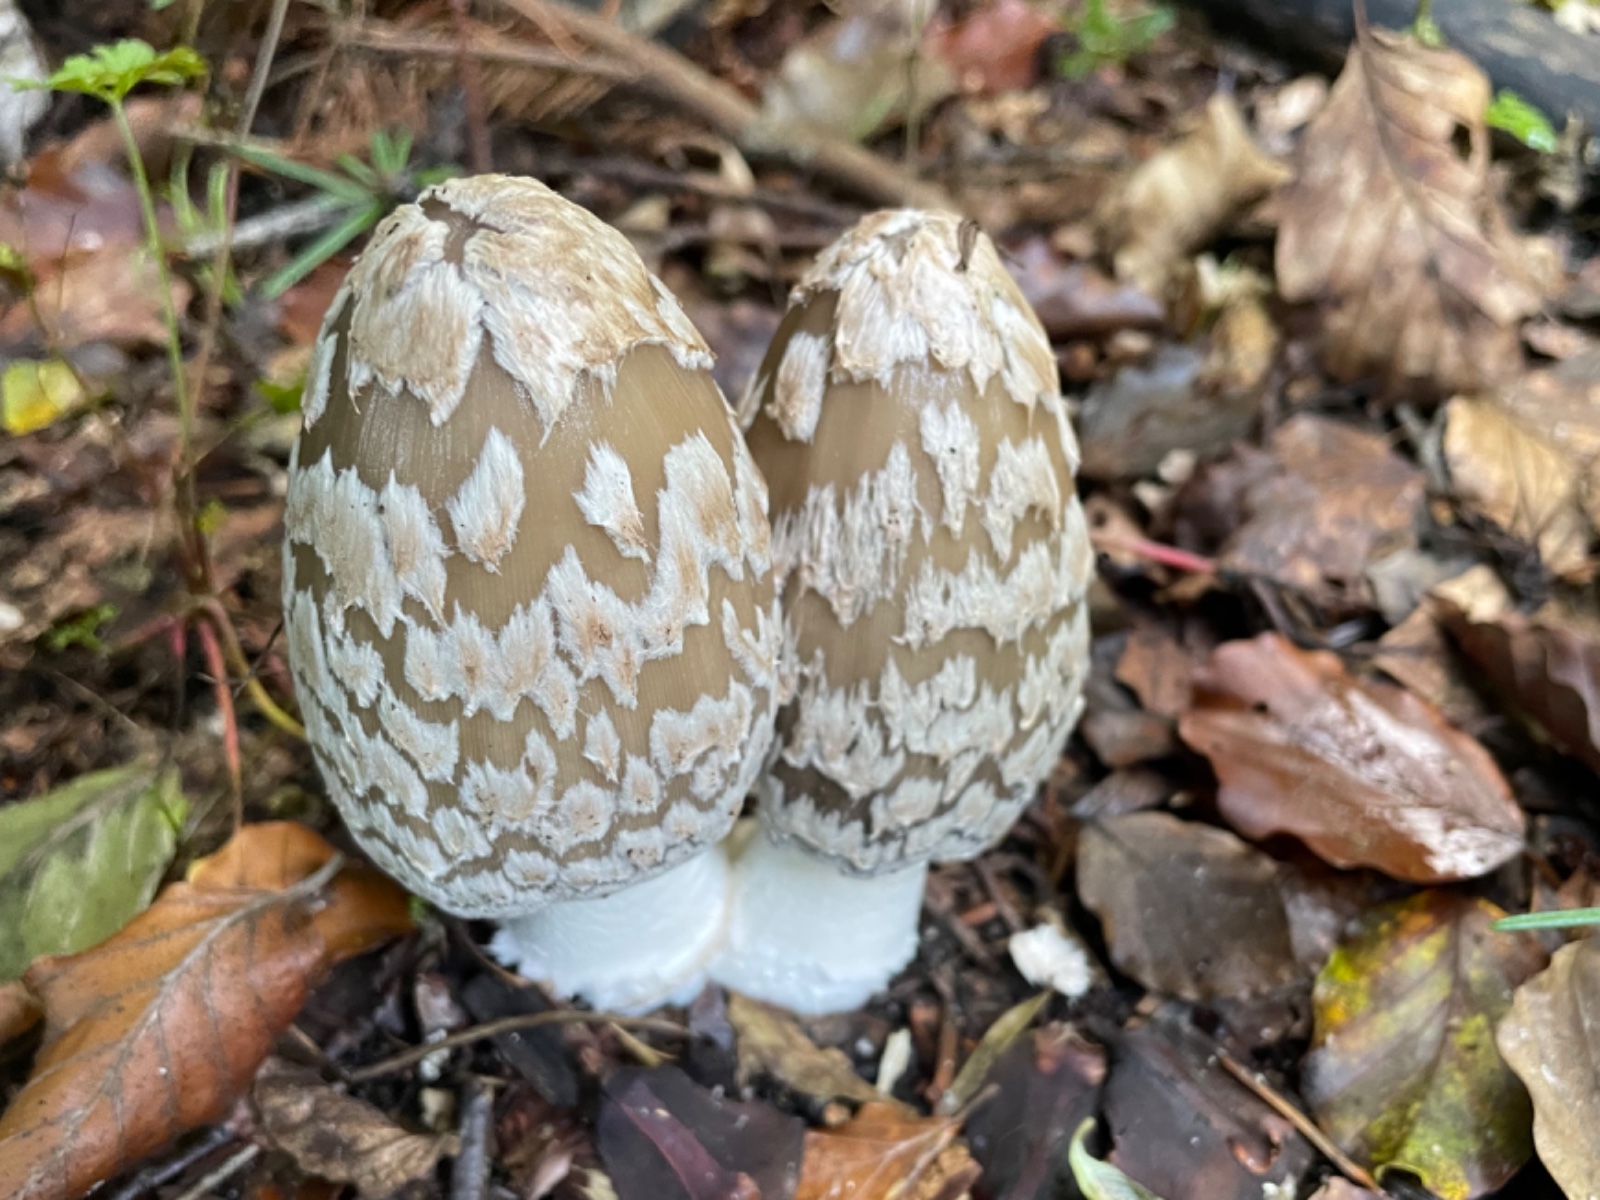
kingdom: Fungi
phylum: Basidiomycota
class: Agaricomycetes
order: Agaricales
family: Psathyrellaceae
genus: Coprinopsis
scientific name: Coprinopsis picacea
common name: skade-blækhat
